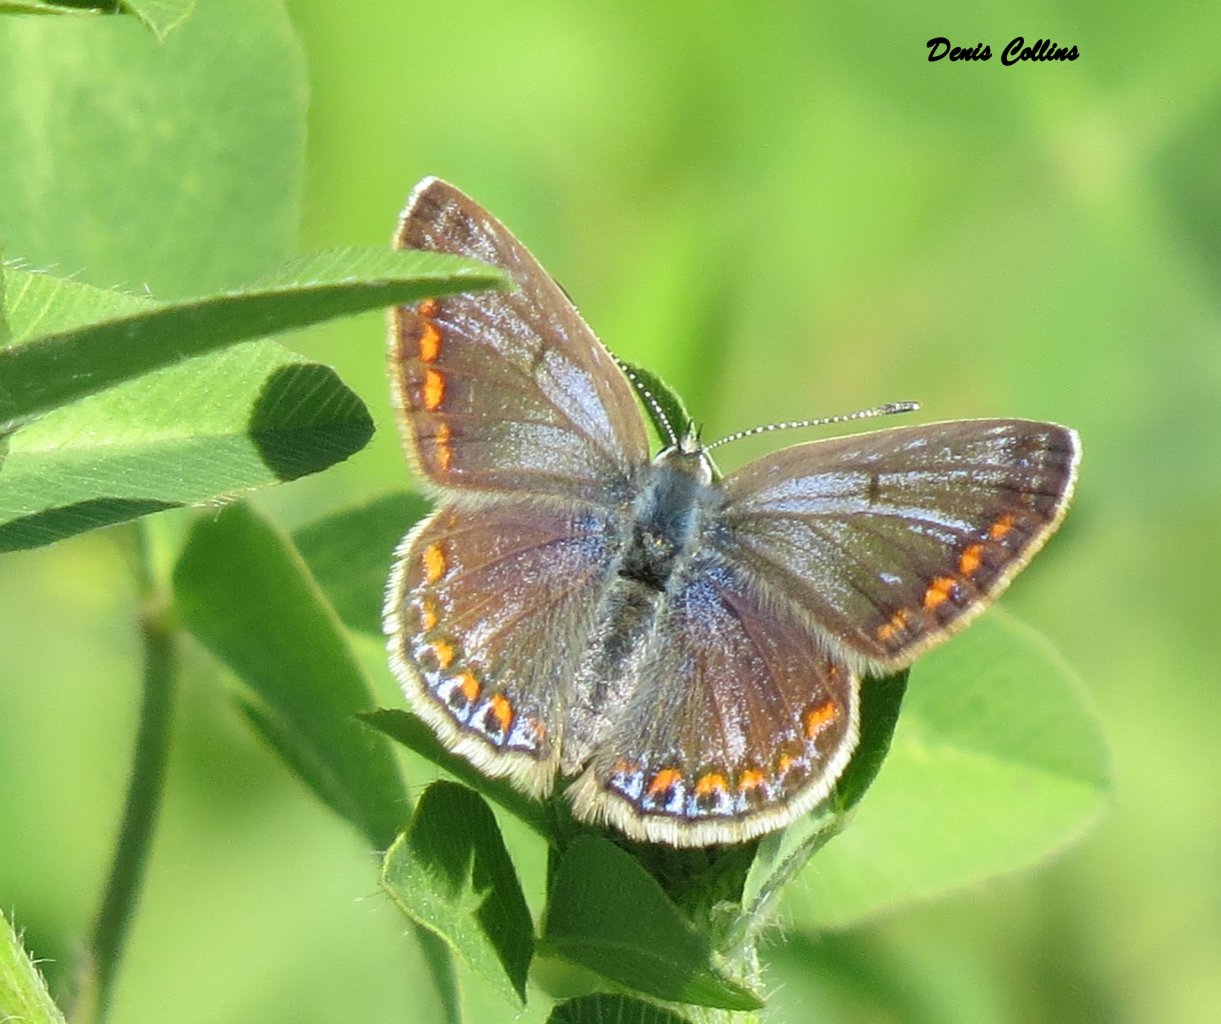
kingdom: Animalia
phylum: Arthropoda
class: Insecta
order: Lepidoptera
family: Lycaenidae
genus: Polyommatus
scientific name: Polyommatus icarus
